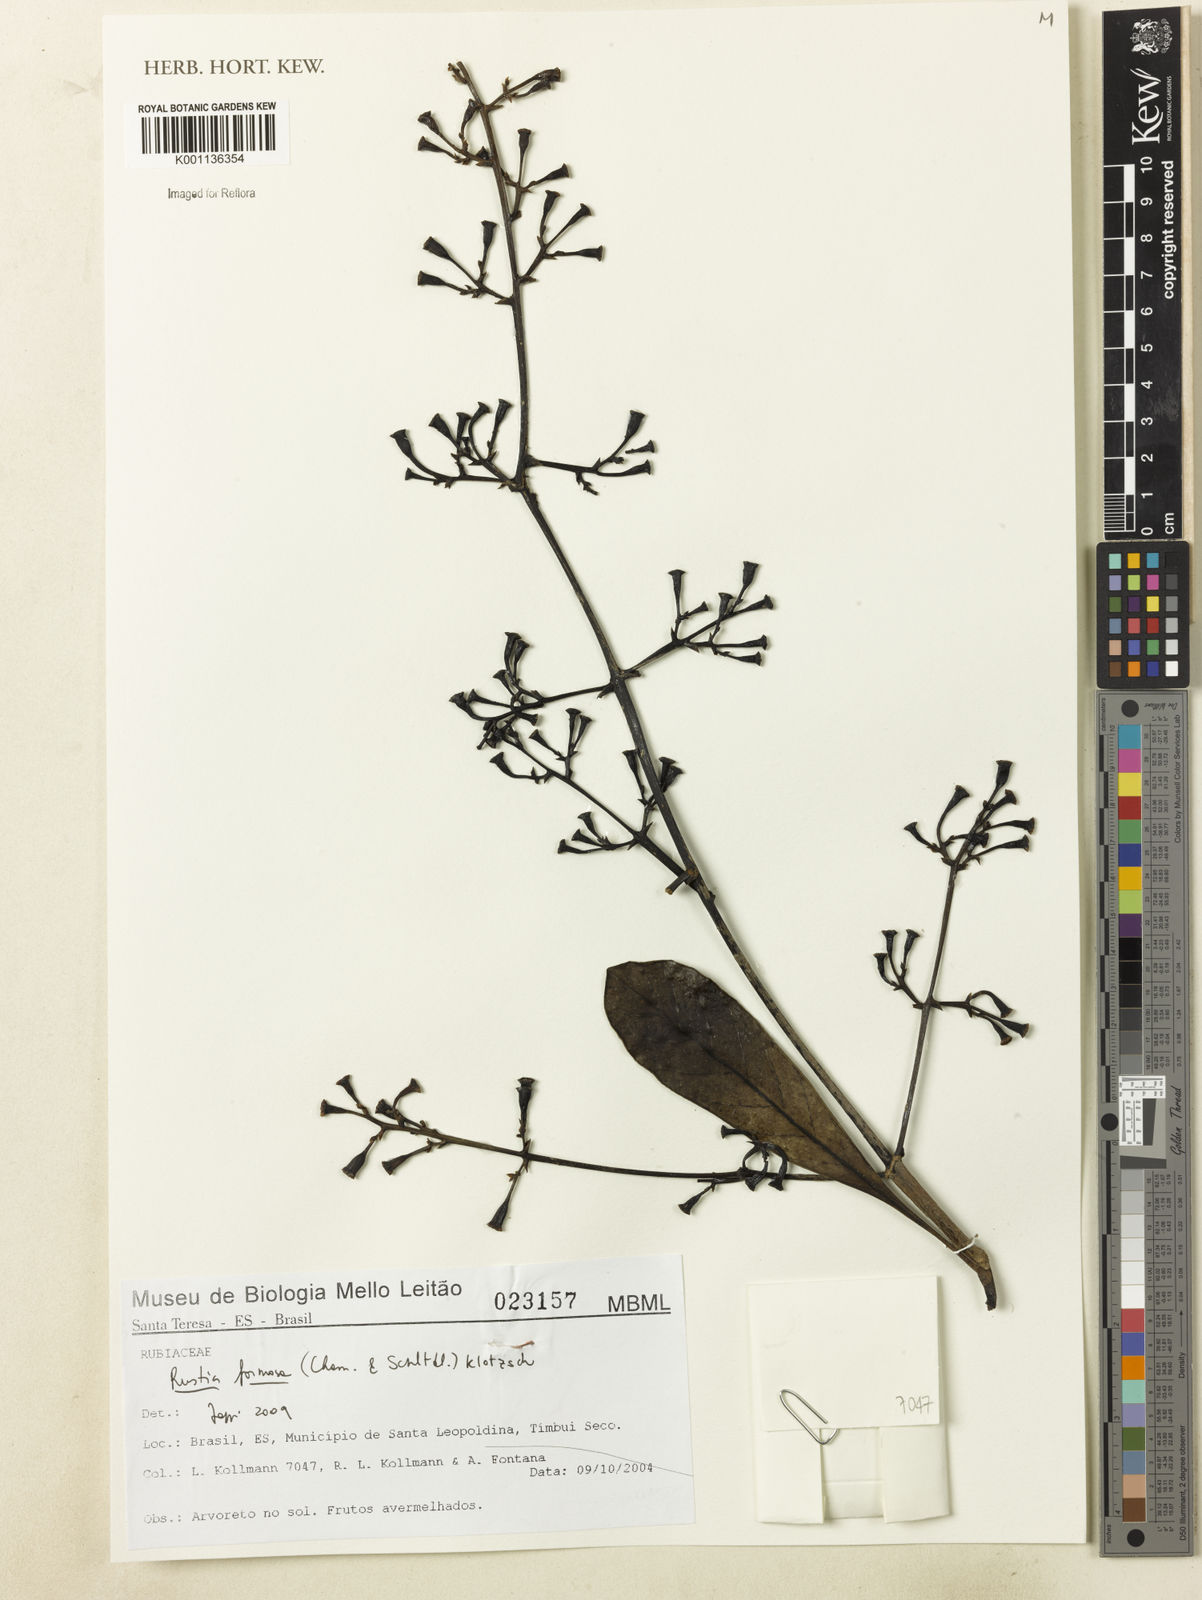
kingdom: Plantae
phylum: Tracheophyta
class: Magnoliopsida
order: Gentianales
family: Rubiaceae
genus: Rustia
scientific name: Rustia formosa
